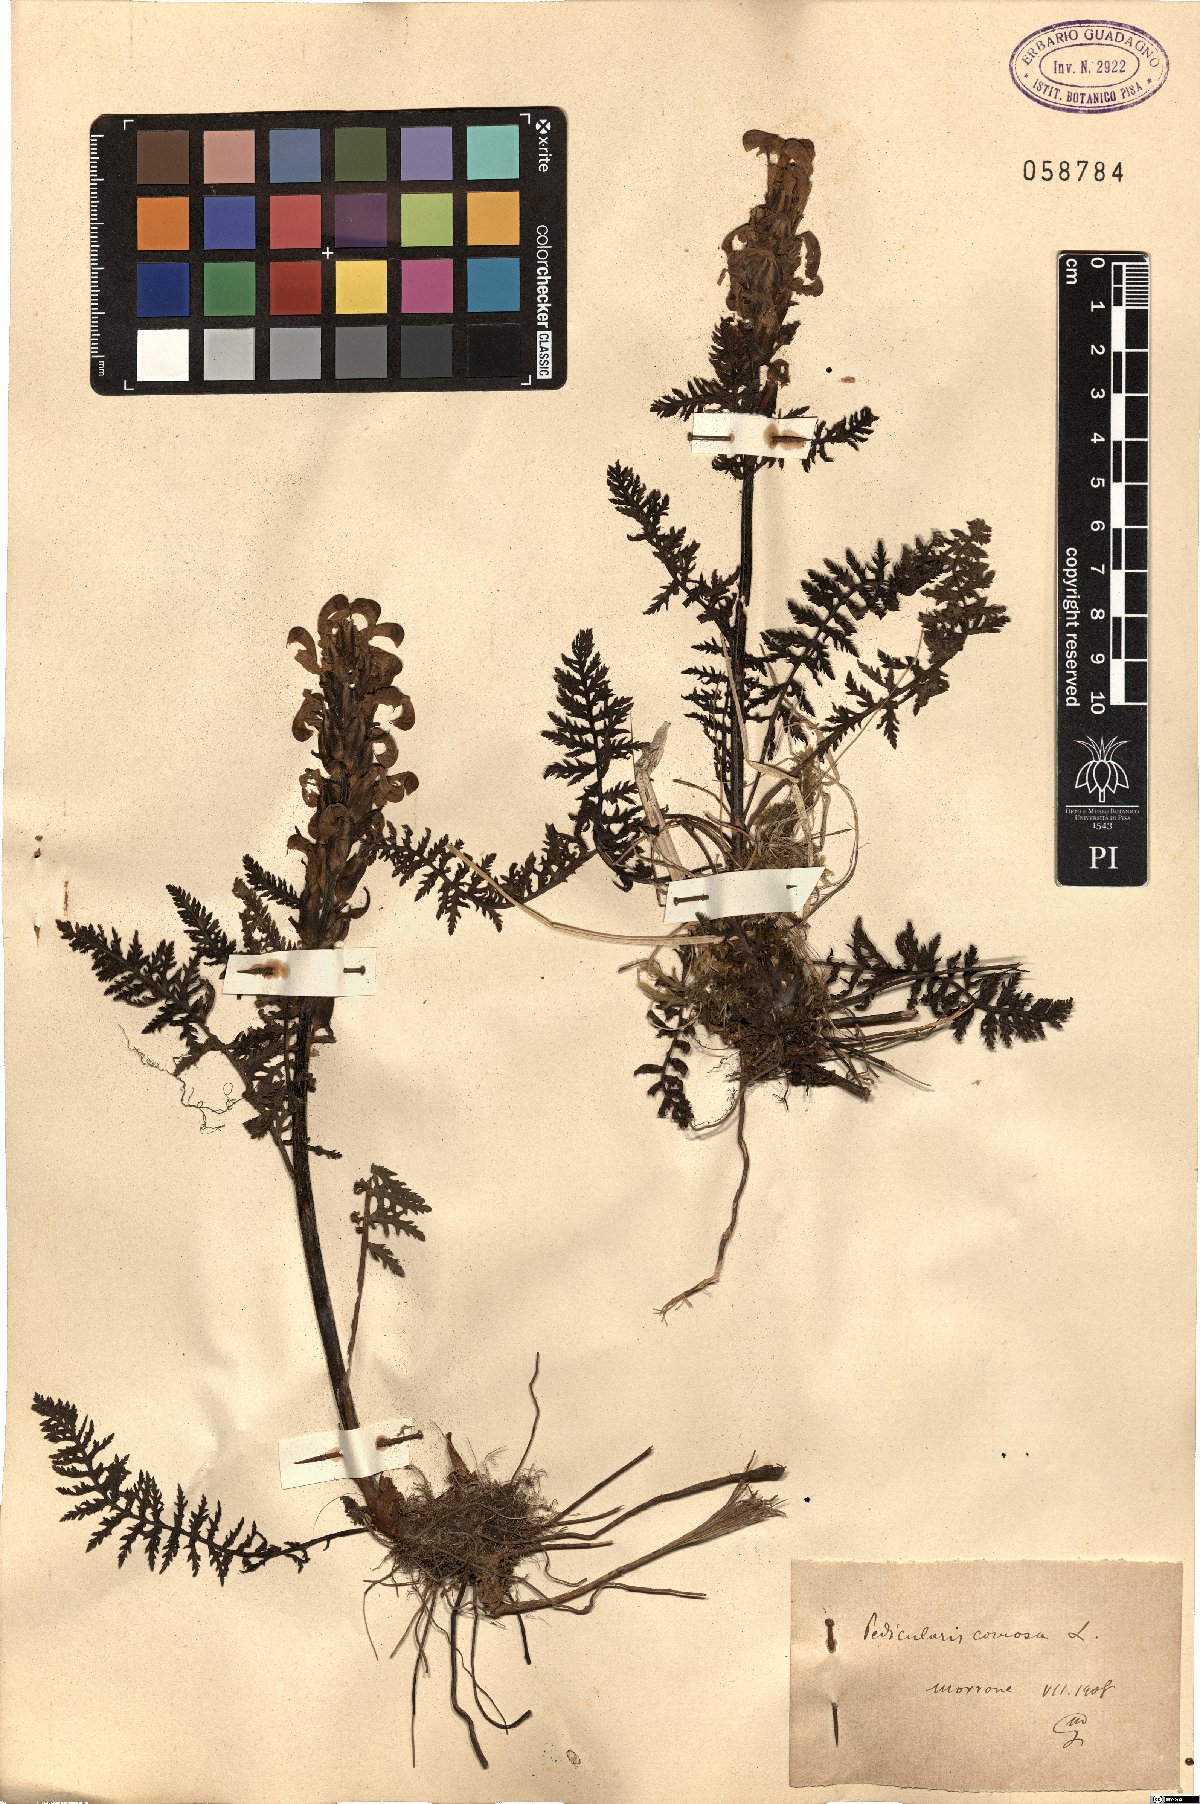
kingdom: Plantae
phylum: Tracheophyta
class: Magnoliopsida
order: Lamiales
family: Orobanchaceae
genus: Pedicularis
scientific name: Pedicularis comosa
